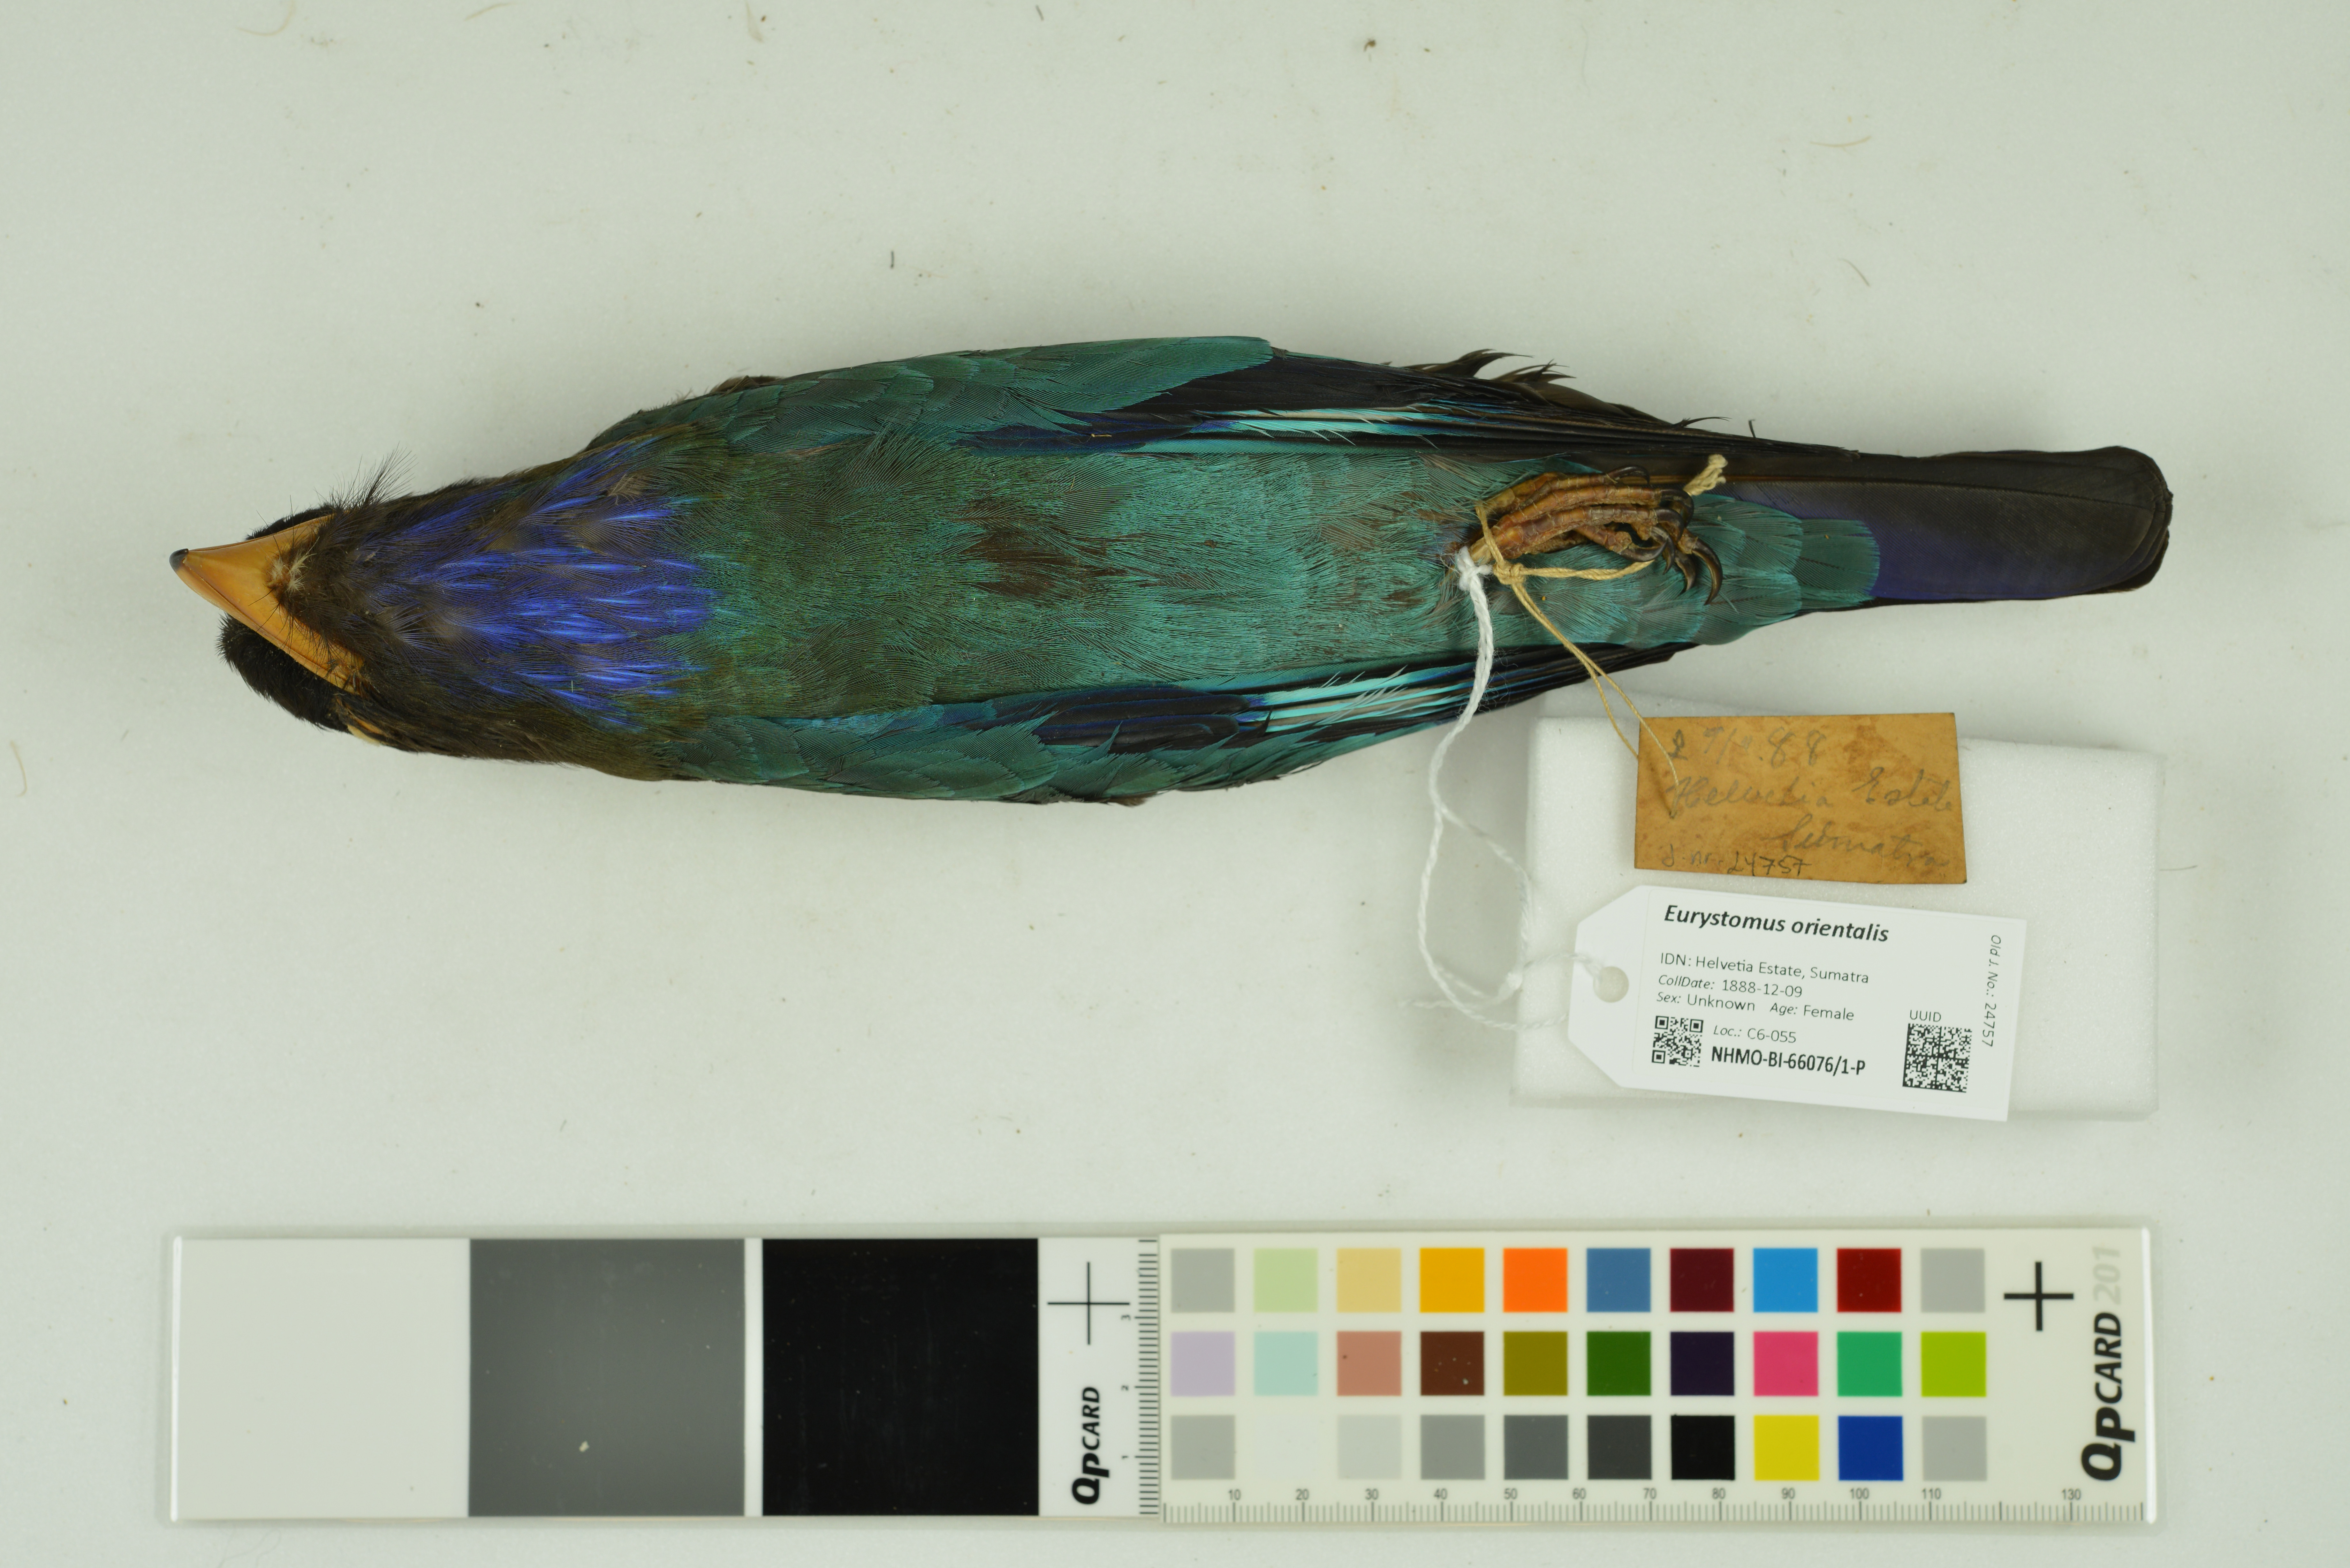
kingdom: Animalia
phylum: Chordata
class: Aves
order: Coraciiformes
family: Coraciidae
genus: Eurystomus
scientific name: Eurystomus orientalis
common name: Oriental dollarbird
